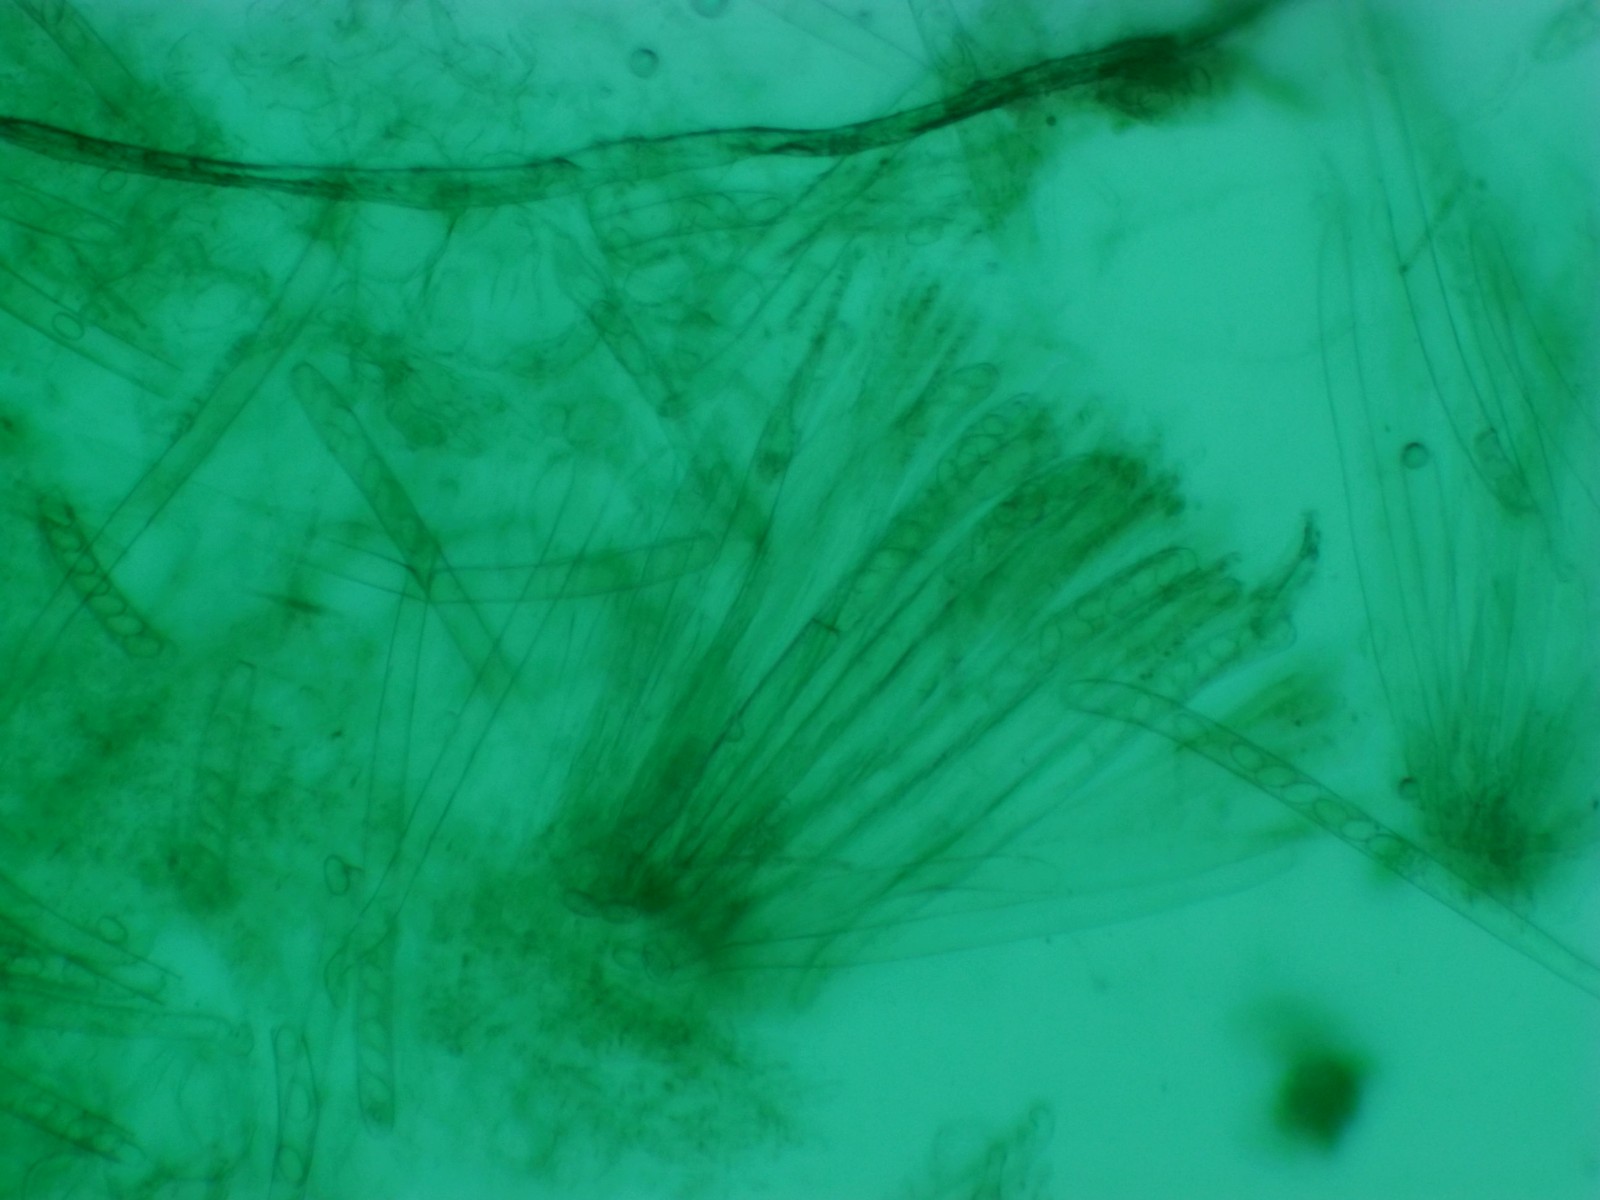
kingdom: Fungi
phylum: Ascomycota
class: Pezizomycetes
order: Pezizales
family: Pezizaceae
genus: Peziza
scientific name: Peziza vesiculosa
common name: blære-bægersvamp
